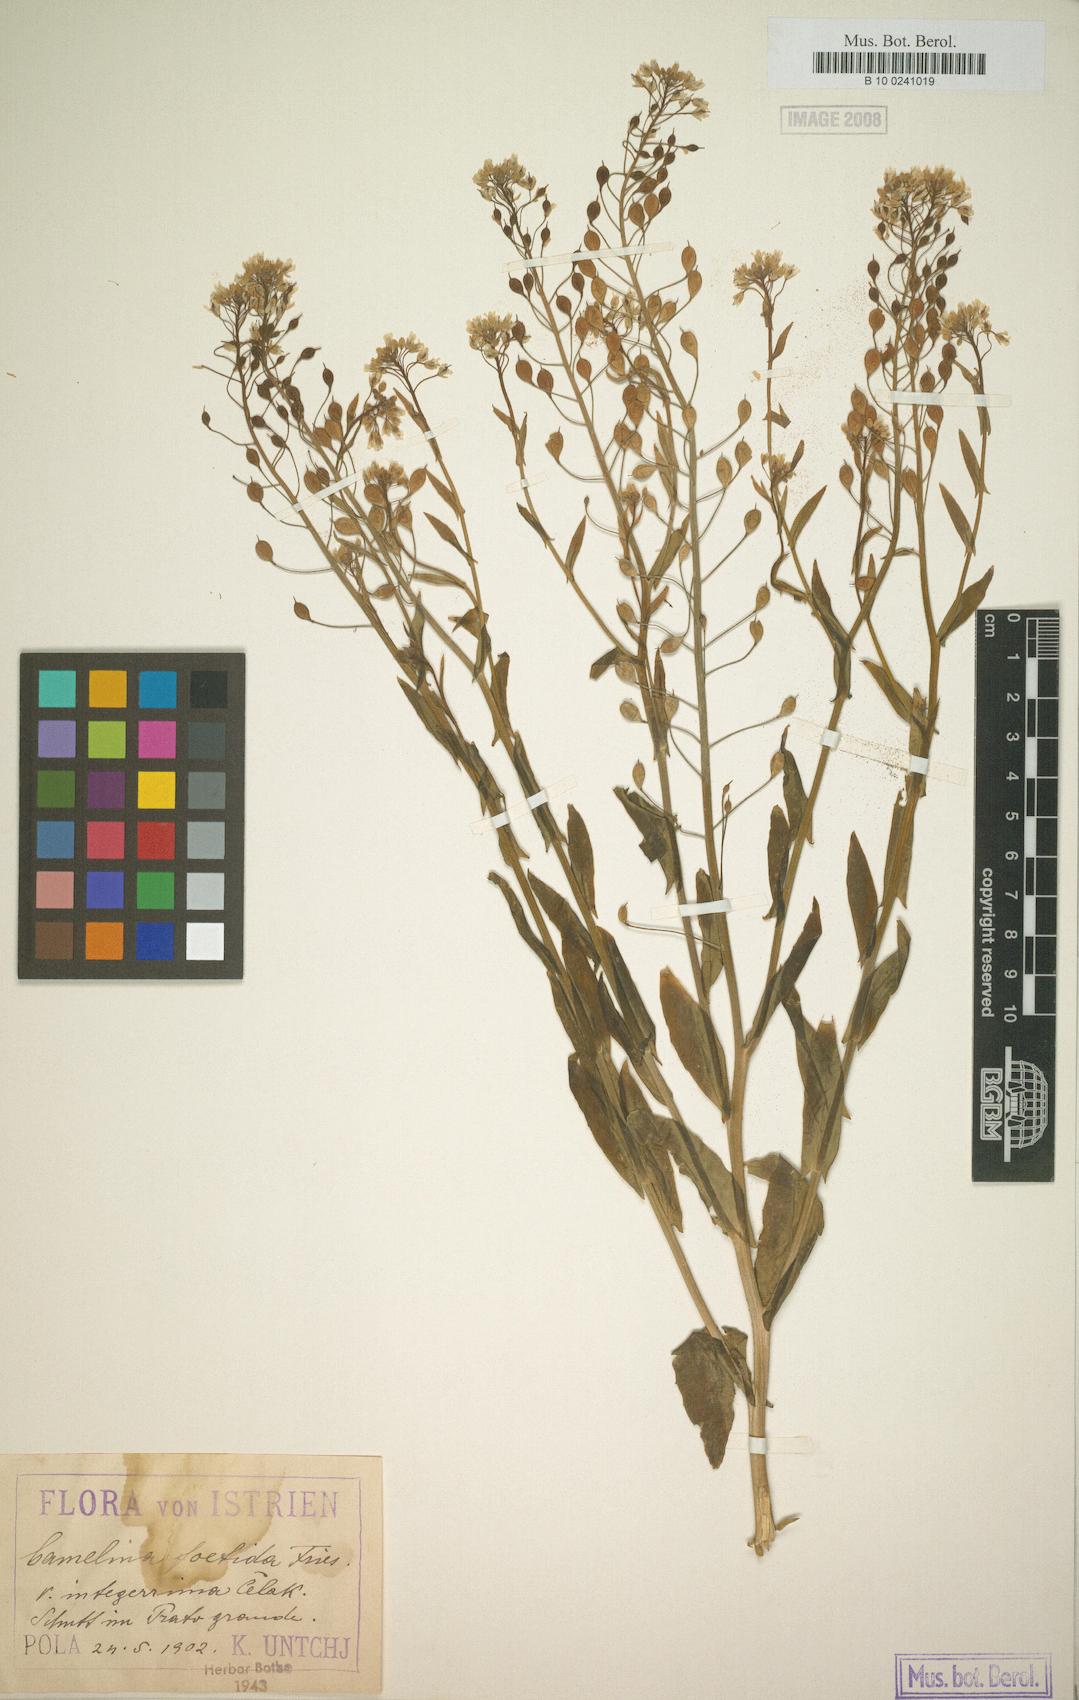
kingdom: Plantae
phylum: Tracheophyta
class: Magnoliopsida
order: Brassicales
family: Brassicaceae
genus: Camelina
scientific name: Camelina alyssum
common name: Gold-of-pleasure
